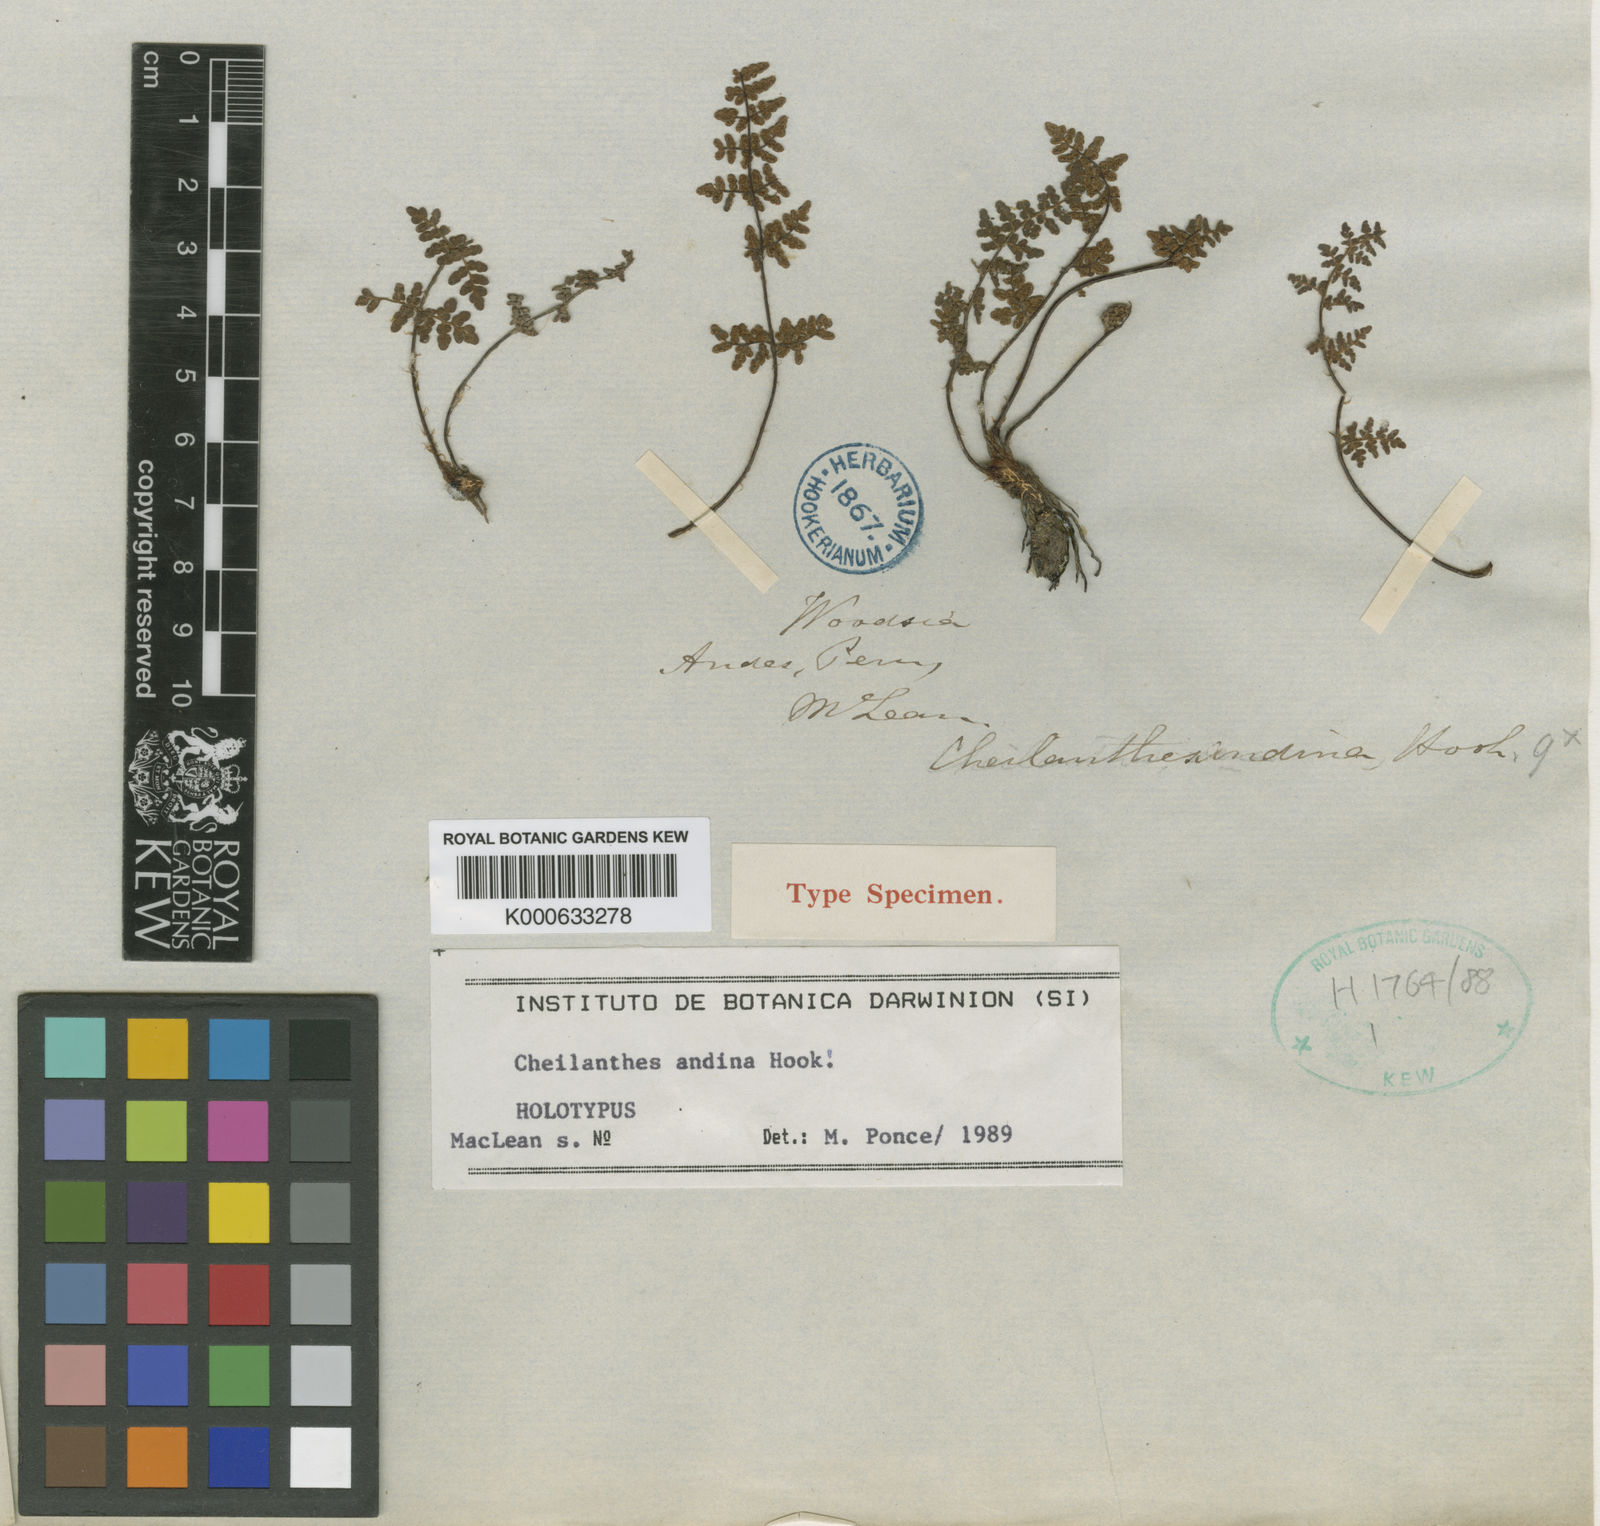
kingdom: Plantae
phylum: Tracheophyta
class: Polypodiopsida
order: Polypodiales
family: Pteridaceae
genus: Cheilanthes
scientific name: Cheilanthes pilosa
